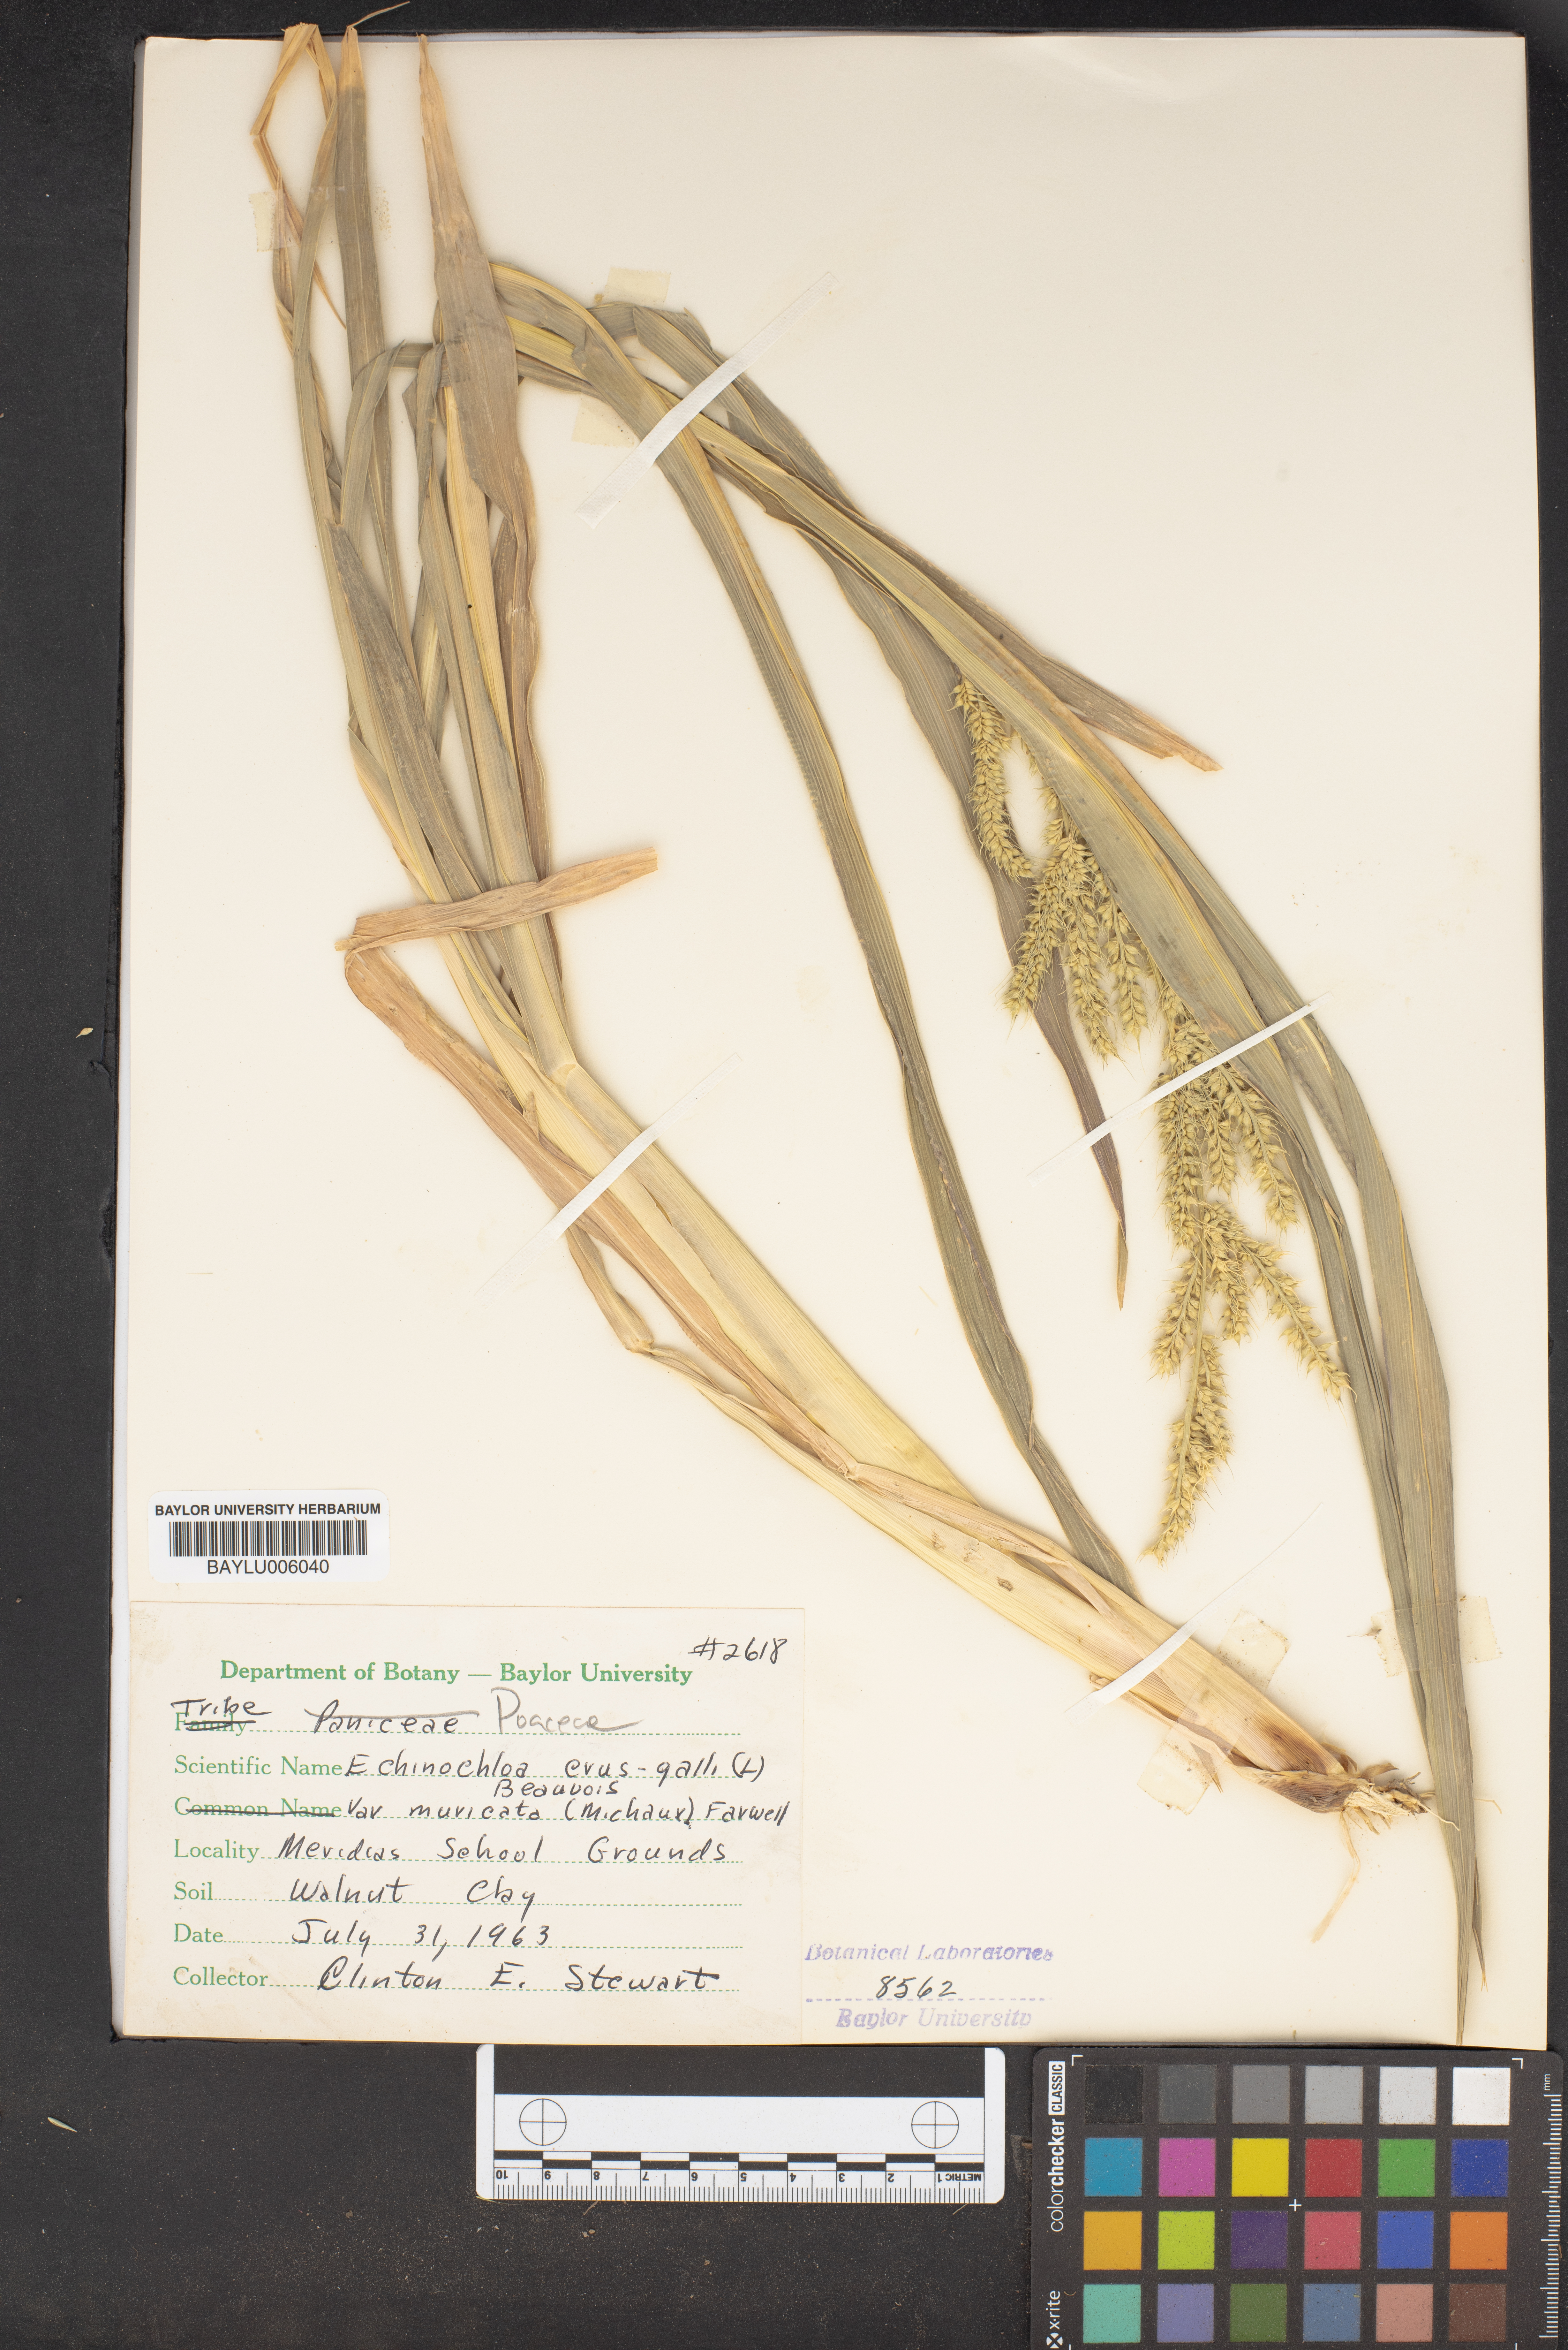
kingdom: Plantae
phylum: Tracheophyta
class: Liliopsida
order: Poales
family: Poaceae
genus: Echinochloa
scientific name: Echinochloa crus-galli
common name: Cockspur
